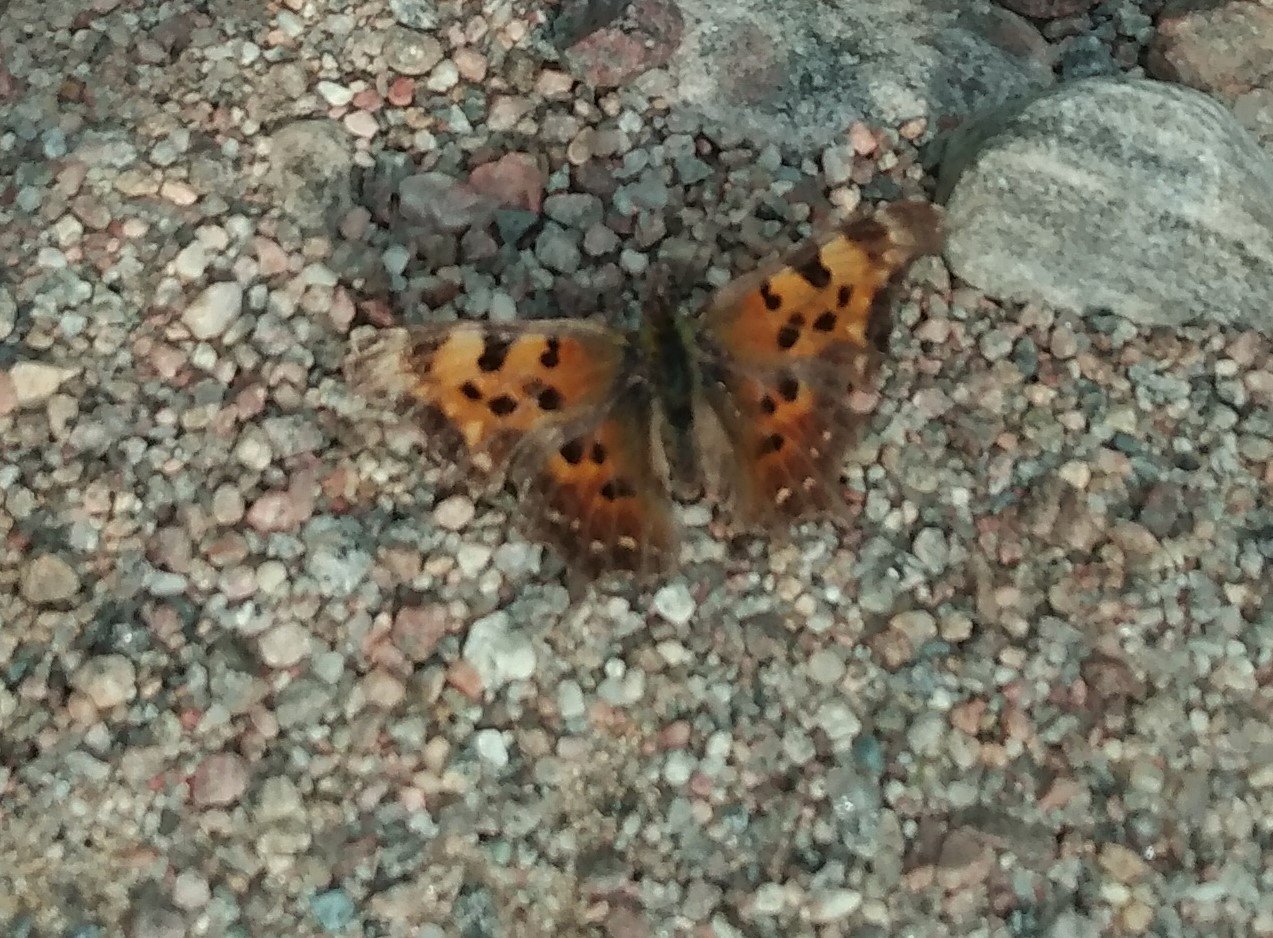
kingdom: Animalia
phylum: Arthropoda
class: Insecta
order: Lepidoptera
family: Nymphalidae
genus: Polygonia
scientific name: Polygonia faunus
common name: Green Comma
